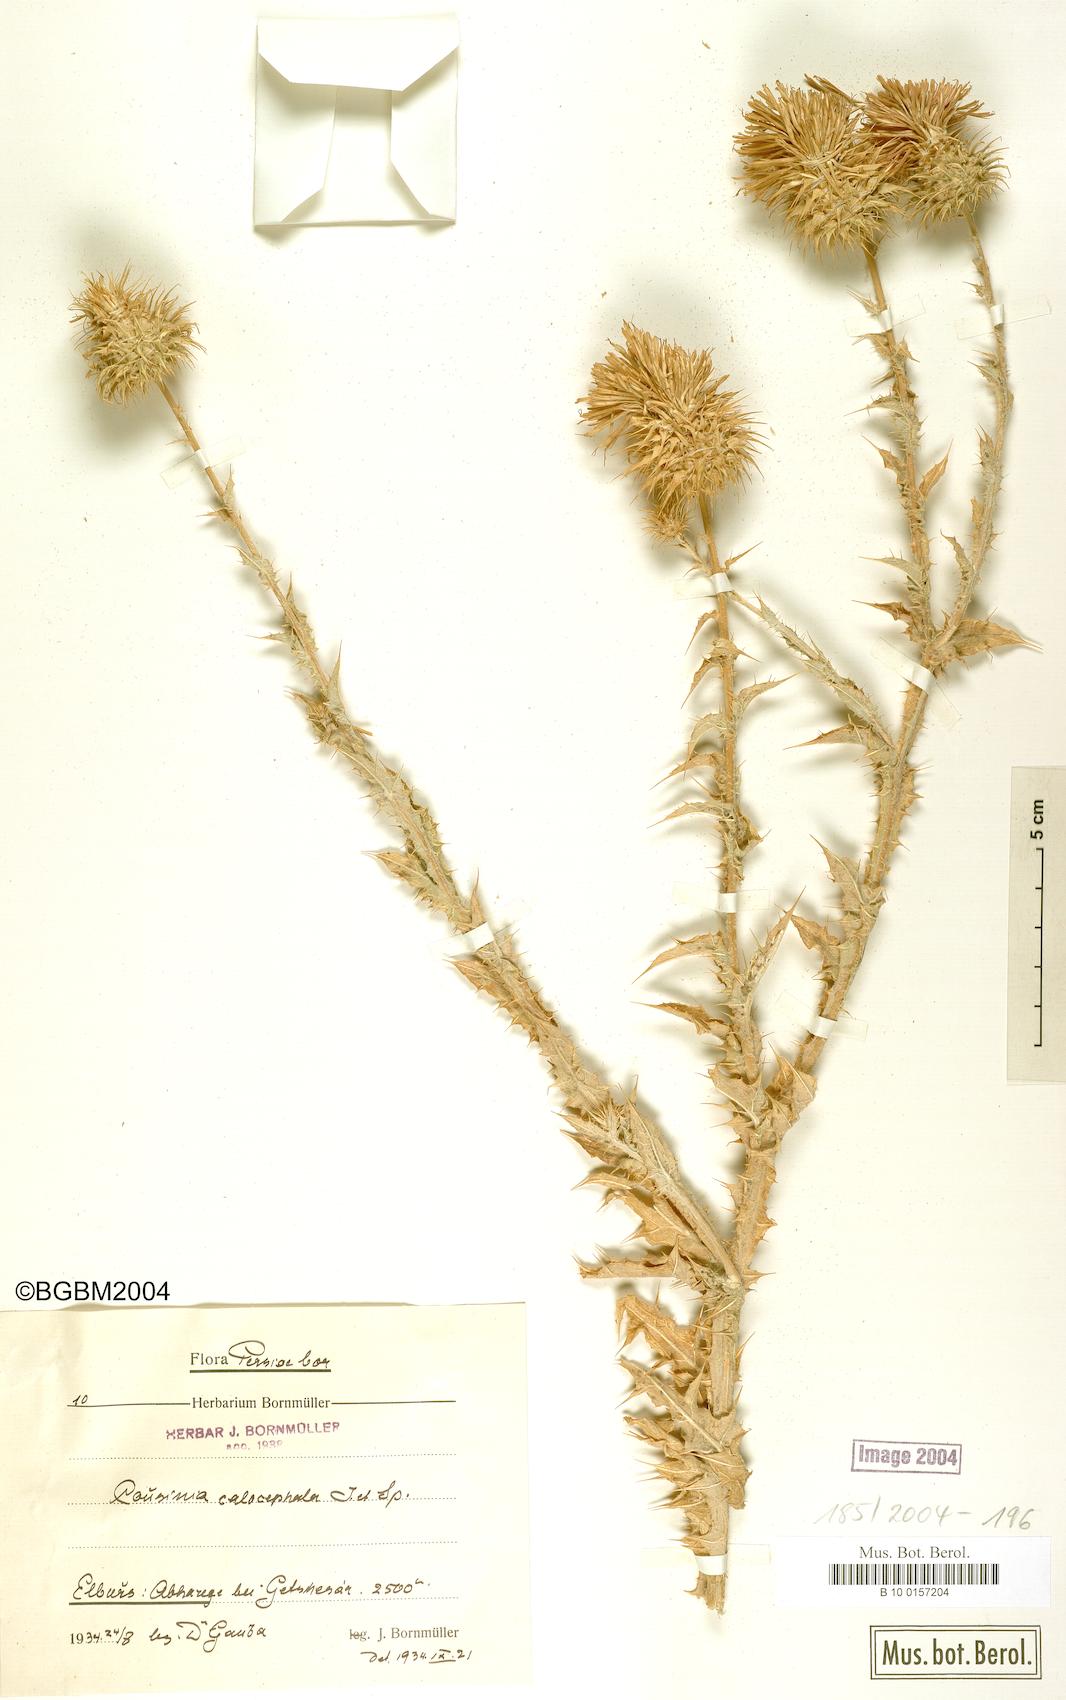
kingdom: Plantae
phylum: Tracheophyta
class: Magnoliopsida
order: Asterales
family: Asteraceae
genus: Cousinia
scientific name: Cousinia calocephala
